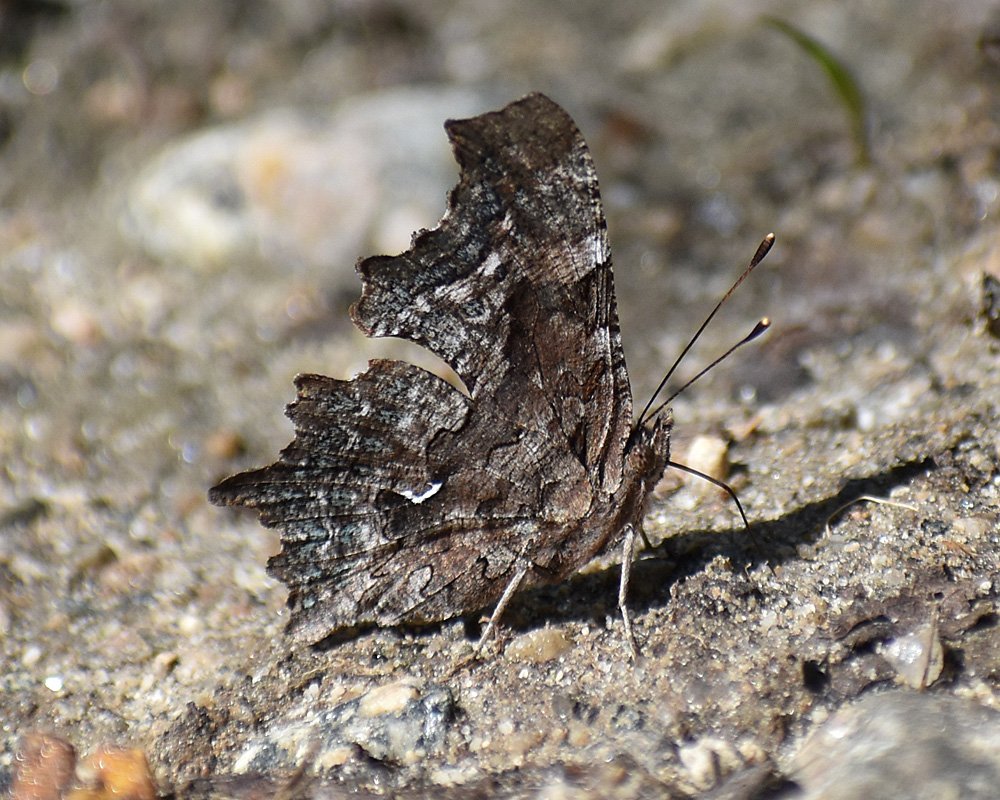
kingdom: Animalia
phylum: Arthropoda
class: Insecta
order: Lepidoptera
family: Nymphalidae
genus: Polygonia
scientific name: Polygonia faunus
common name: Green Comma
